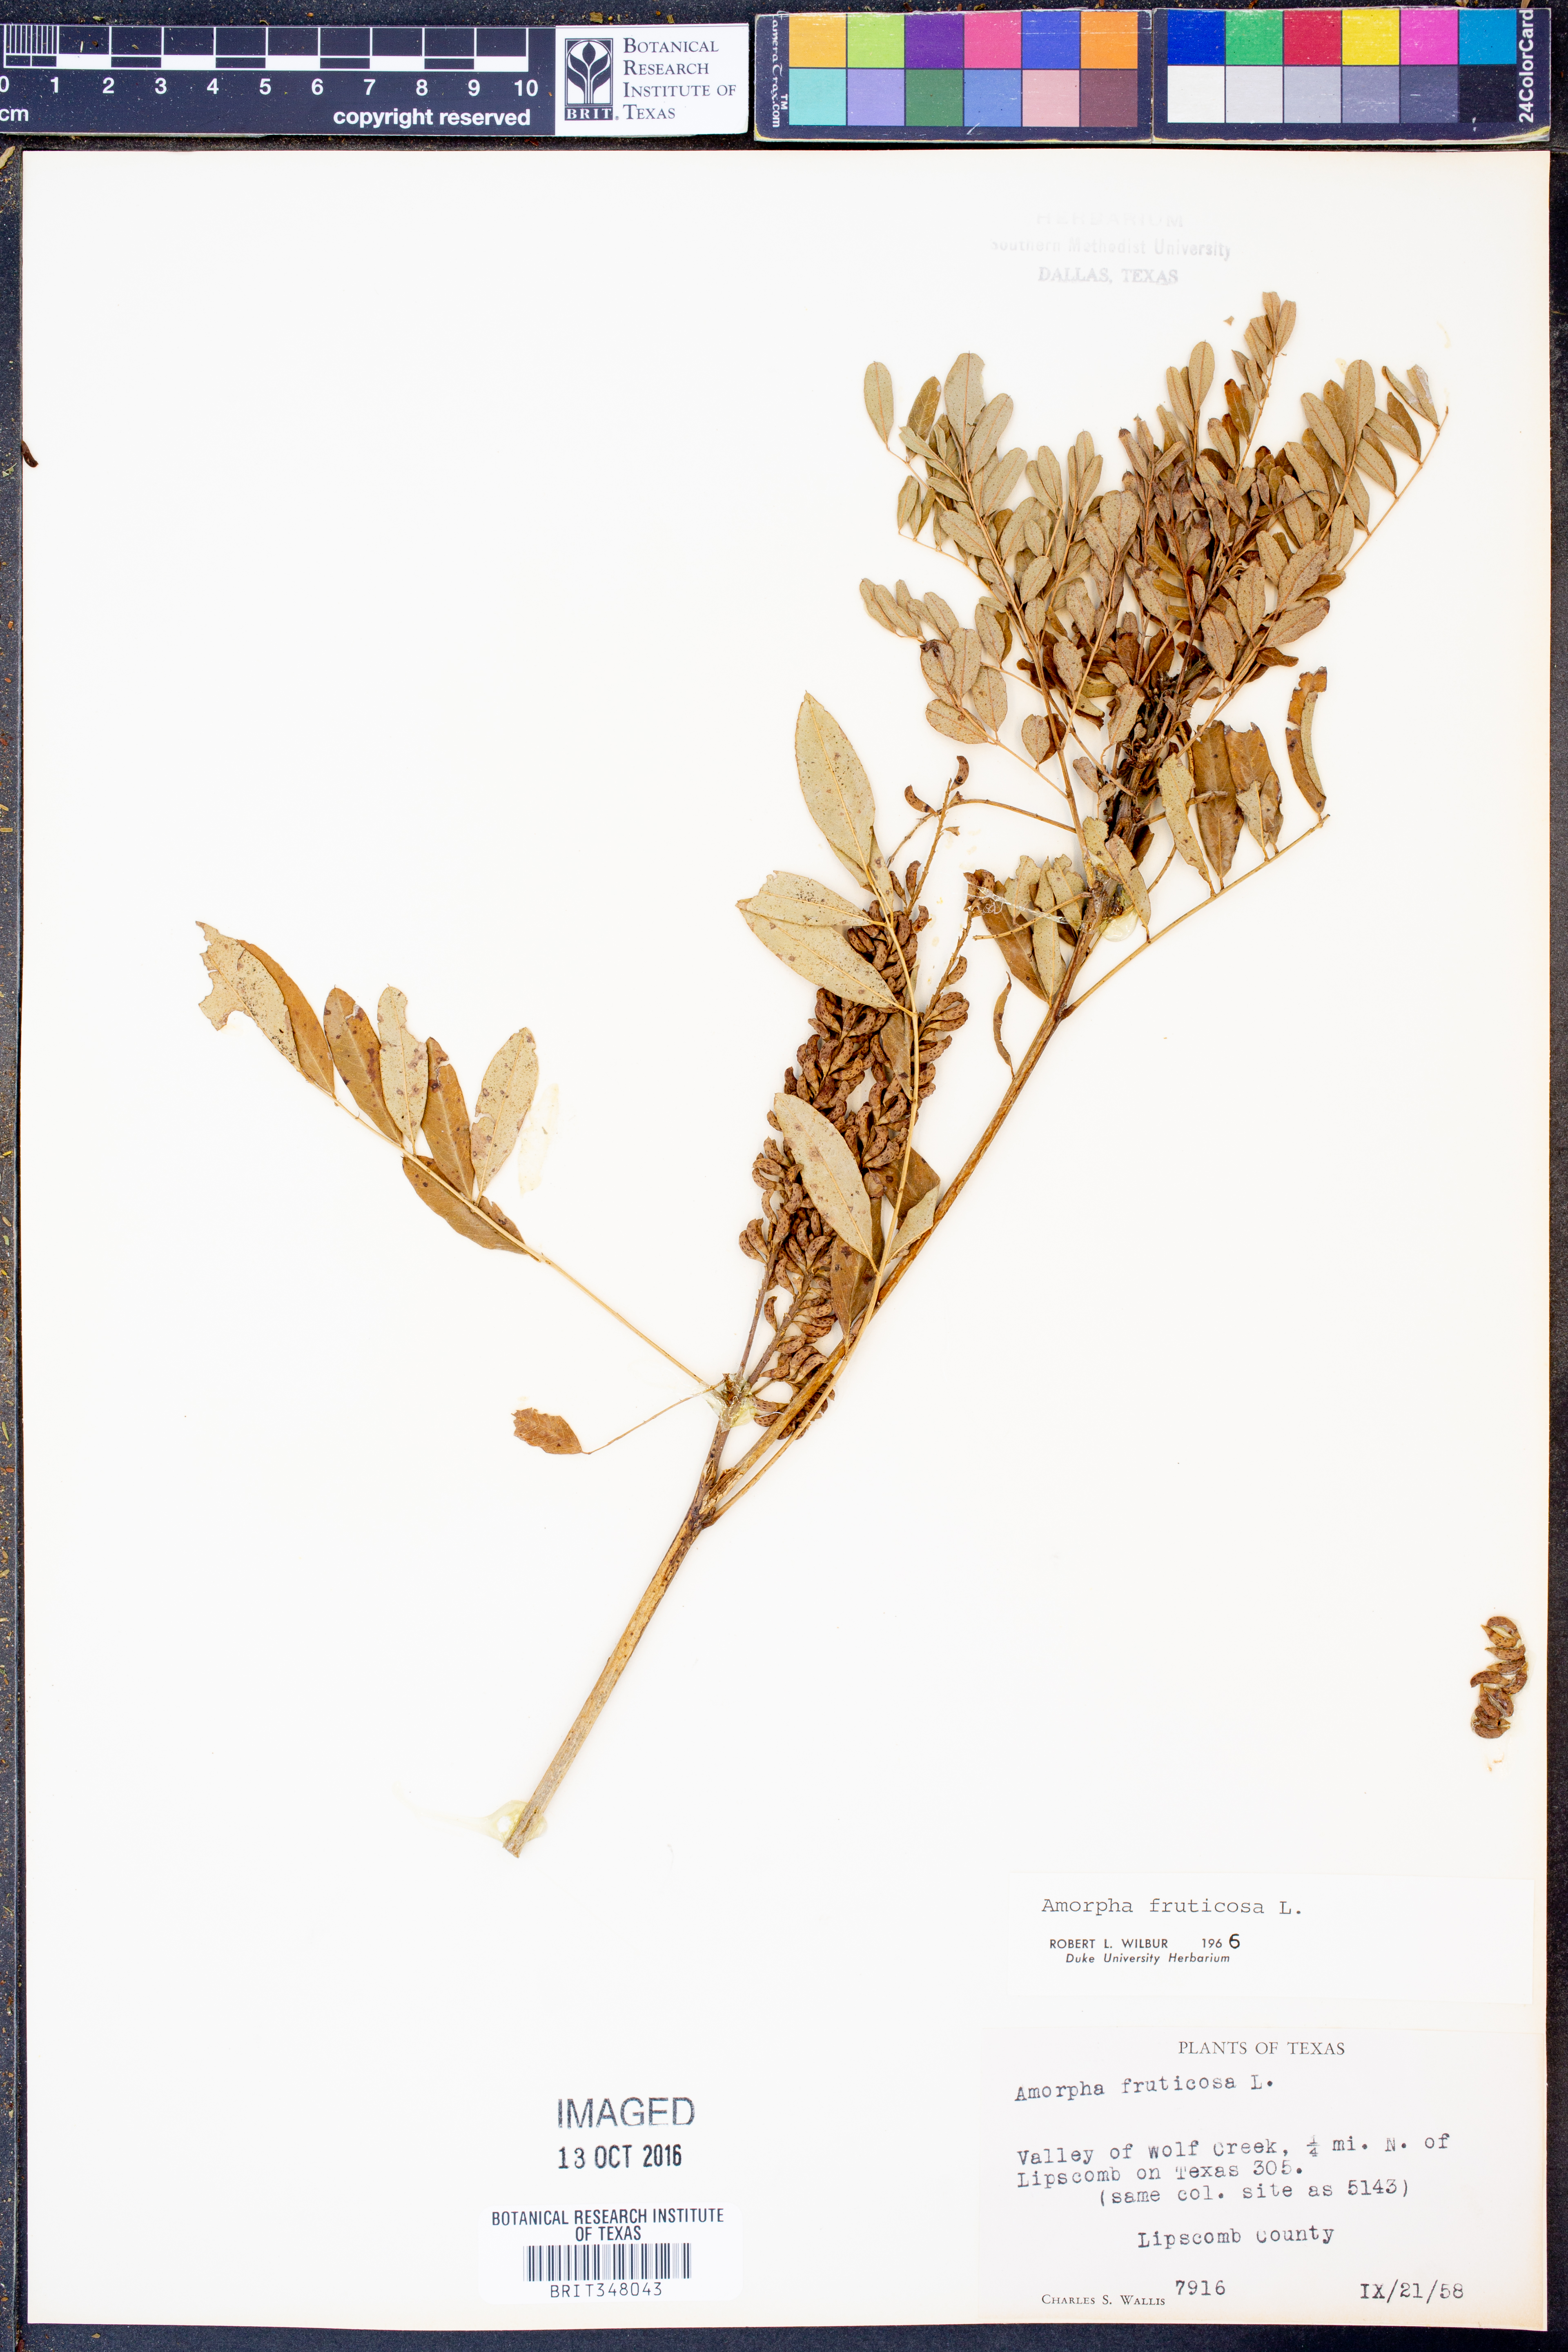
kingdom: Plantae
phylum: Tracheophyta
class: Magnoliopsida
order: Fabales
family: Fabaceae
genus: Amorpha
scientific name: Amorpha fruticosa
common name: False indigo
